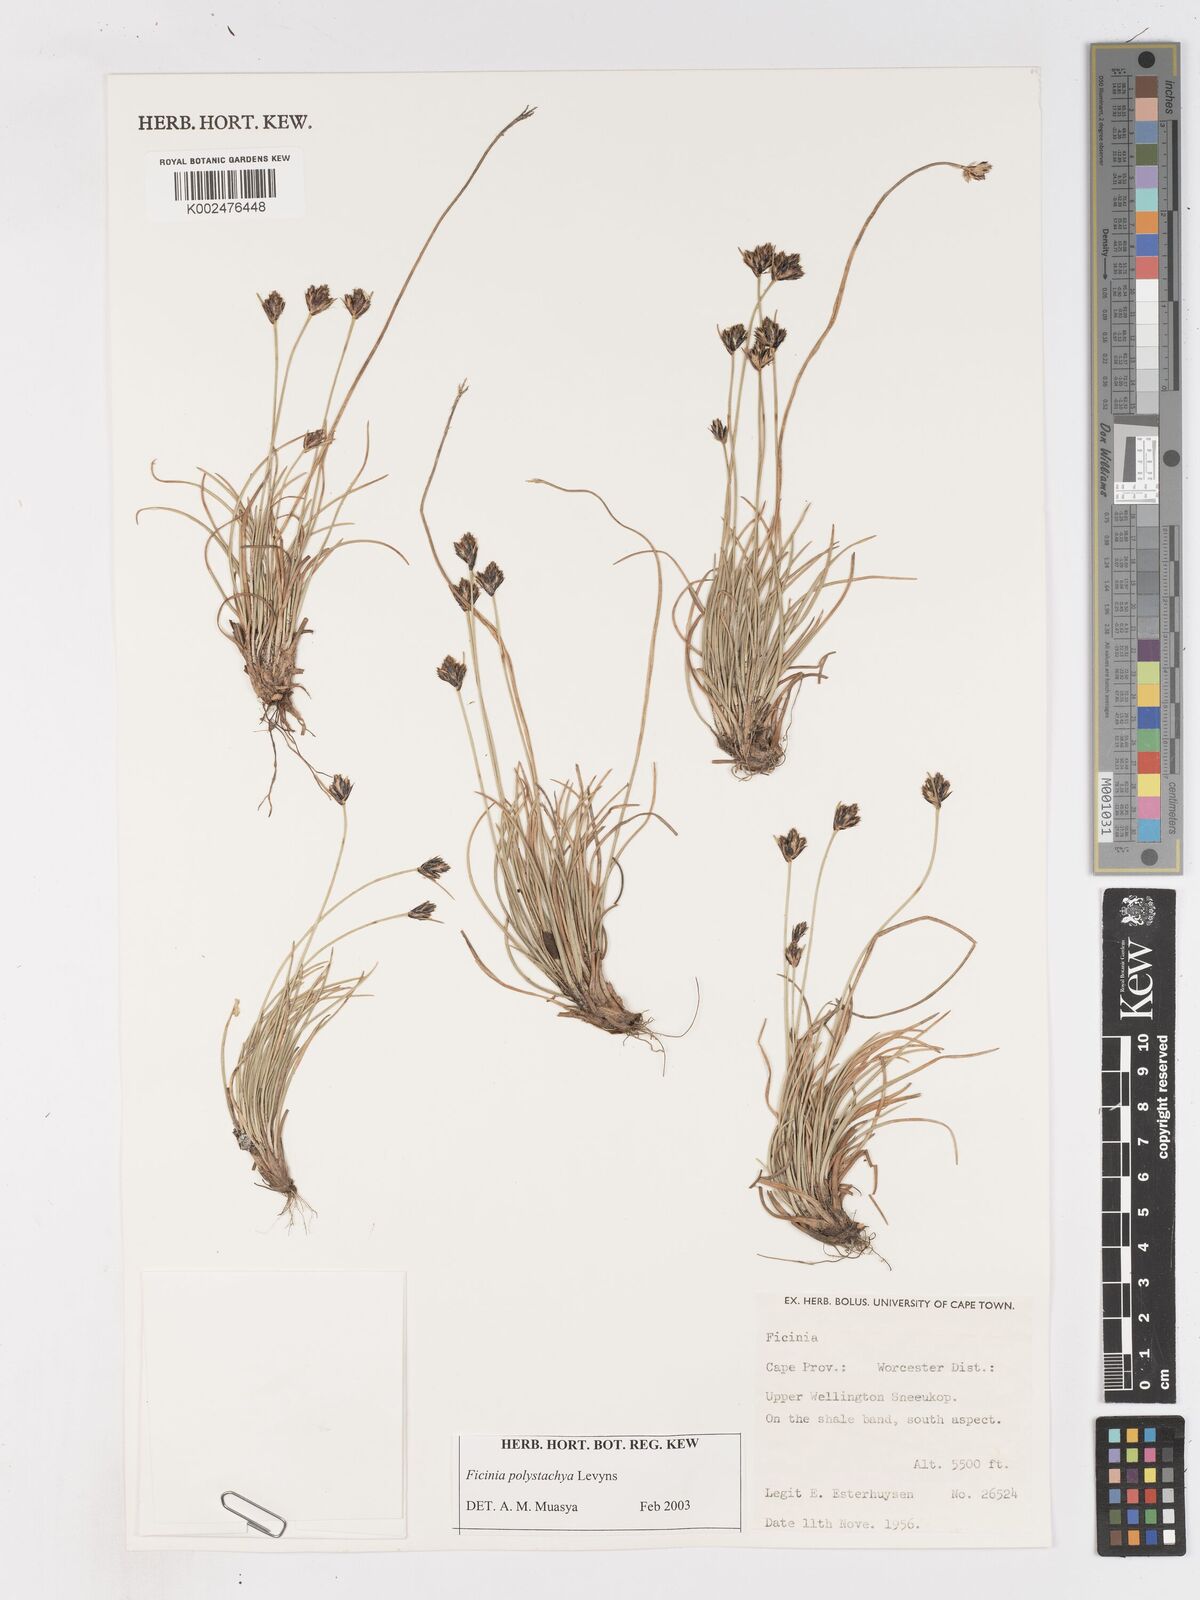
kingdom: Plantae
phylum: Tracheophyta
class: Liliopsida
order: Poales
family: Cyperaceae
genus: Ficinia
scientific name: Ficinia polystachya
